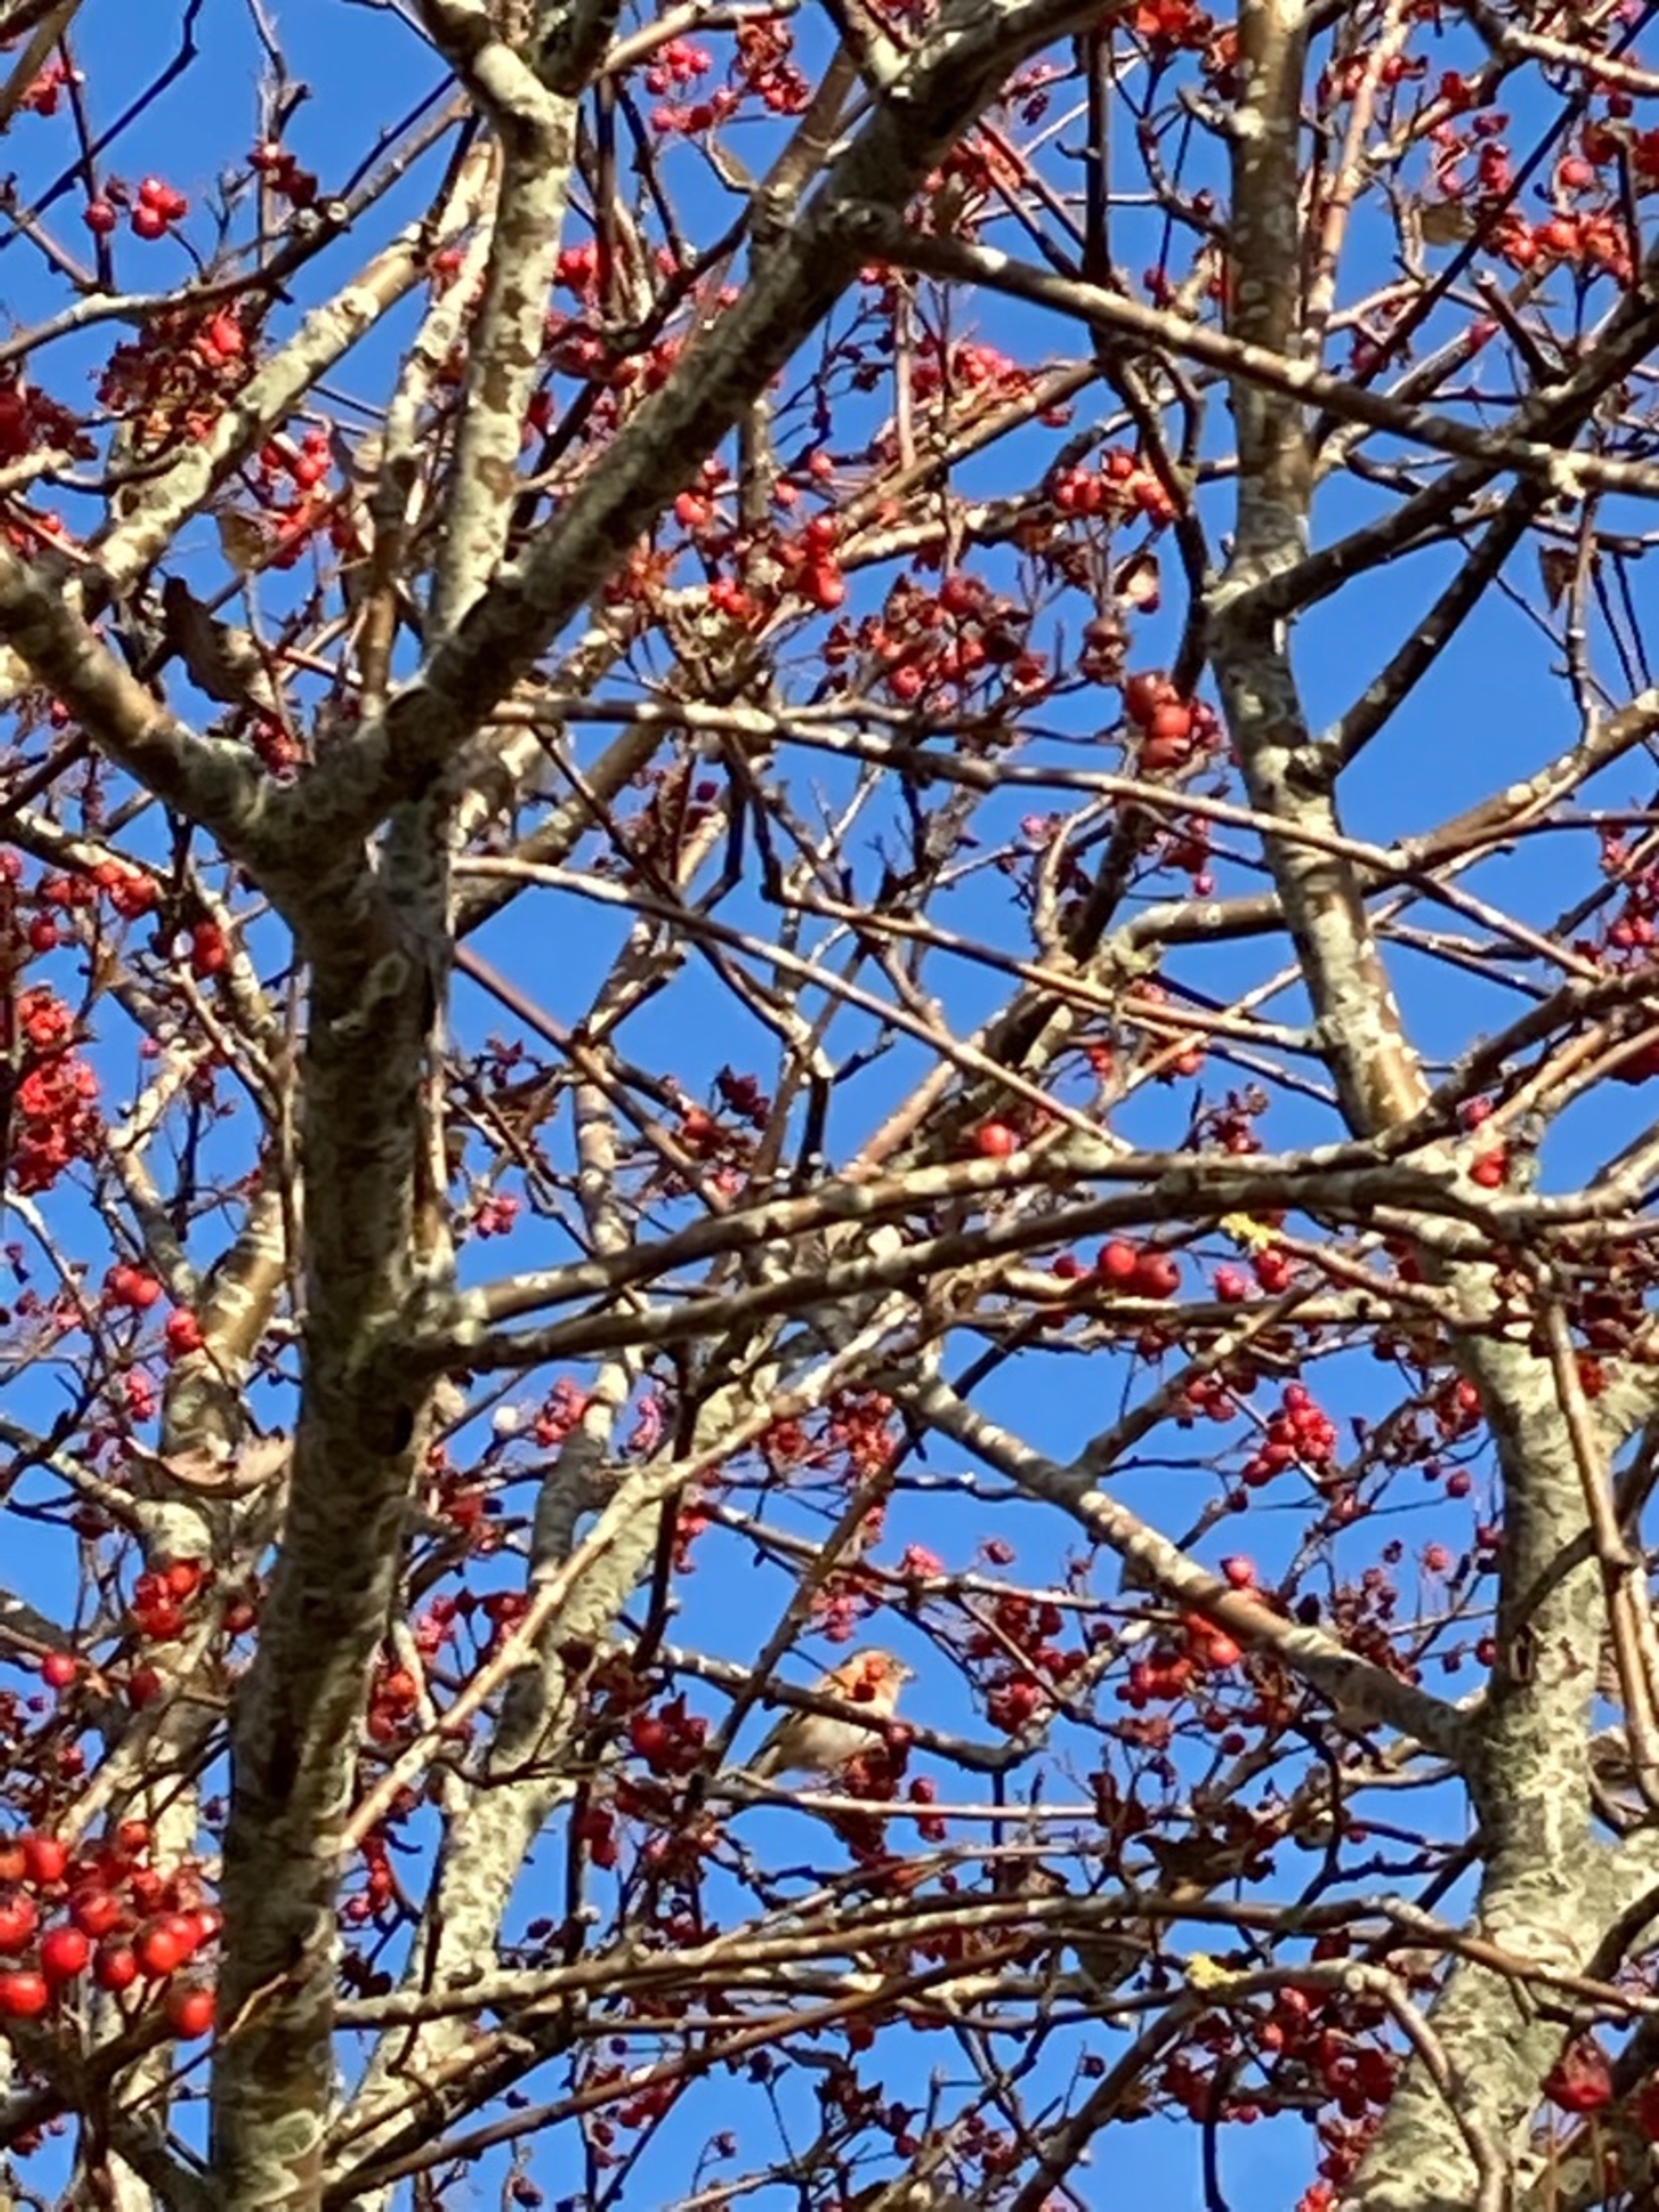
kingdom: Animalia
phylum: Chordata
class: Aves
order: Passeriformes
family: Fringillidae
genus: Fringilla
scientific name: Fringilla montifringilla
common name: Kvækerfinke
